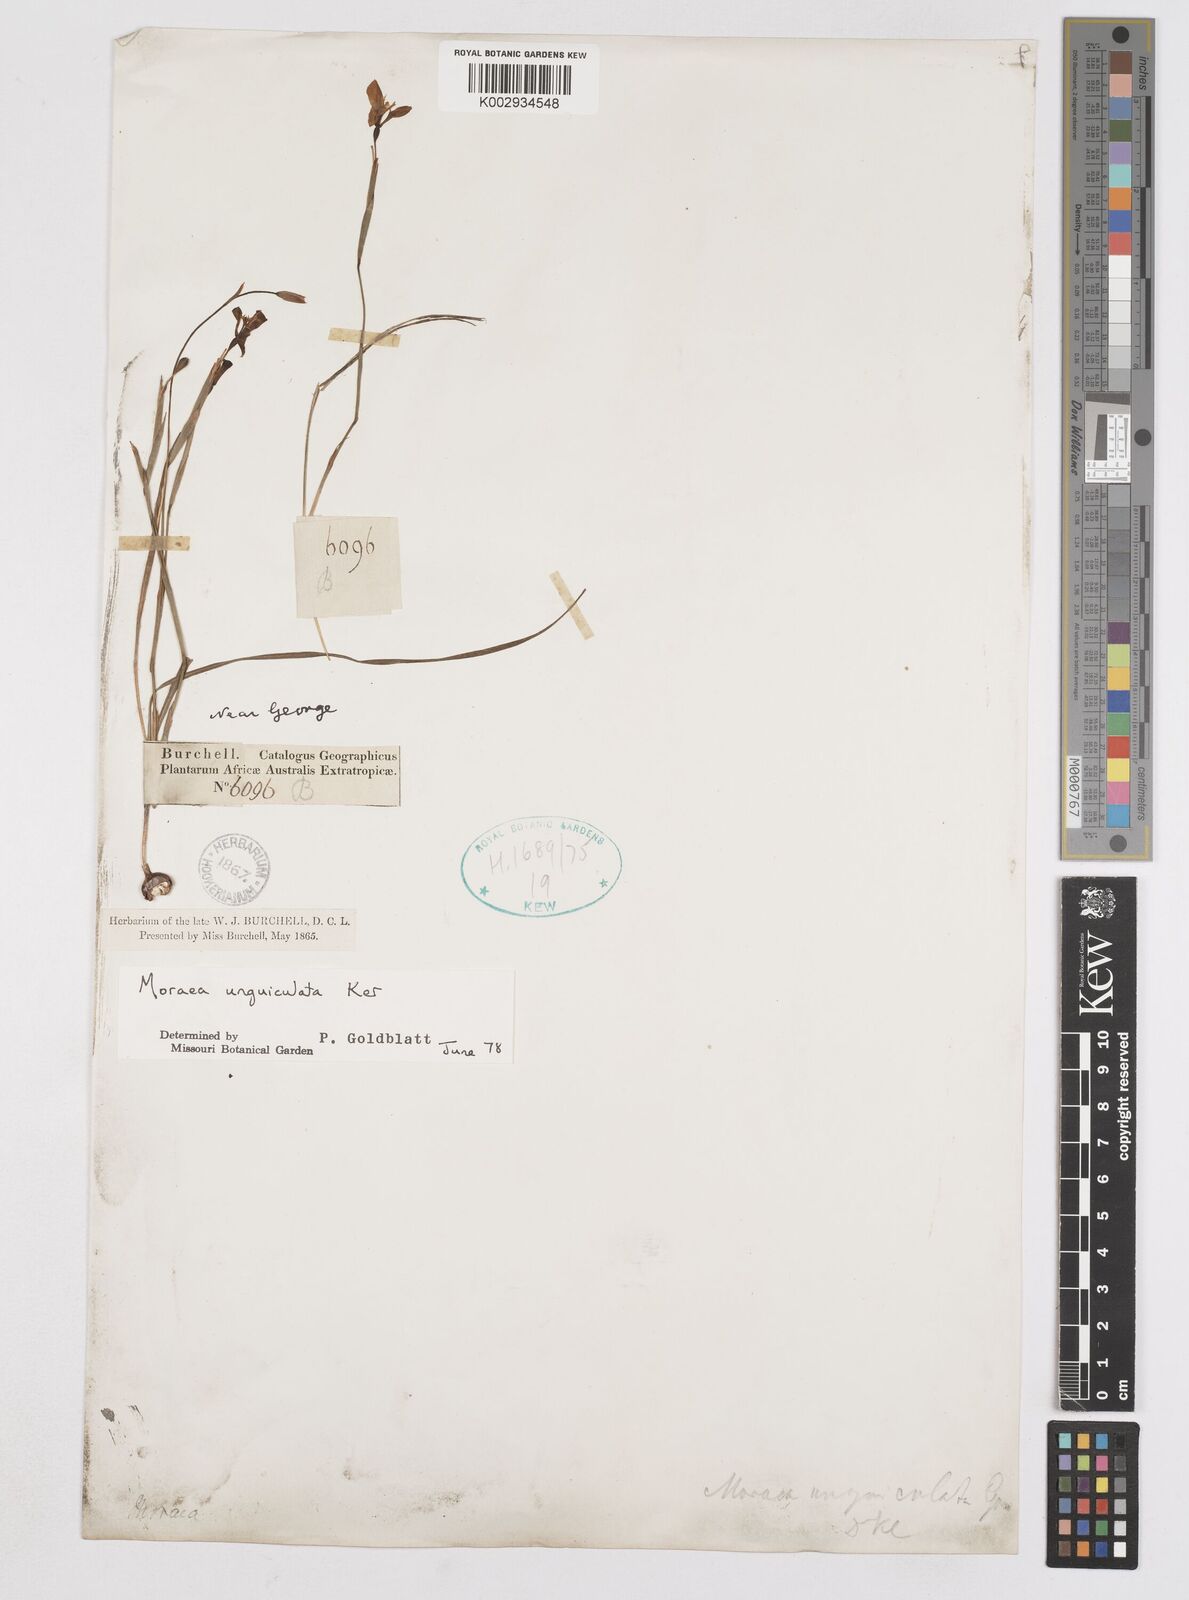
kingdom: Plantae
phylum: Tracheophyta
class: Liliopsida
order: Asparagales
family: Iridaceae
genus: Moraea
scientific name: Moraea unguiculata
